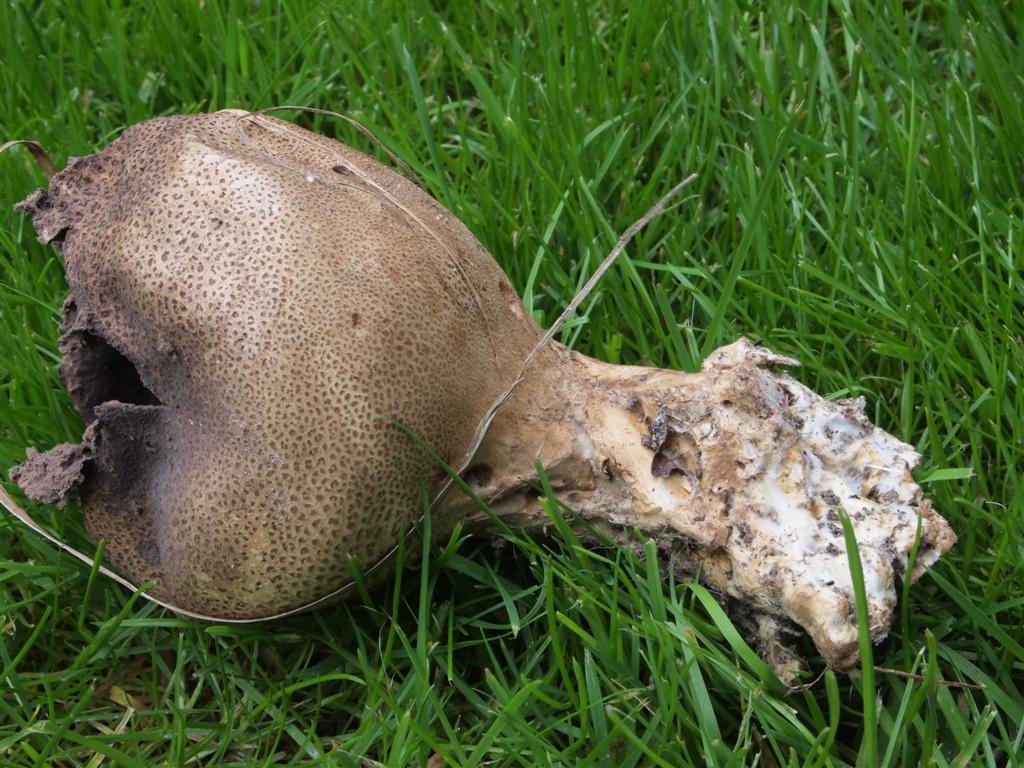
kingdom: Fungi
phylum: Basidiomycota
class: Agaricomycetes
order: Boletales
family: Sclerodermataceae
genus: Scleroderma
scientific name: Scleroderma verrucosum
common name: stilket bruskbold
